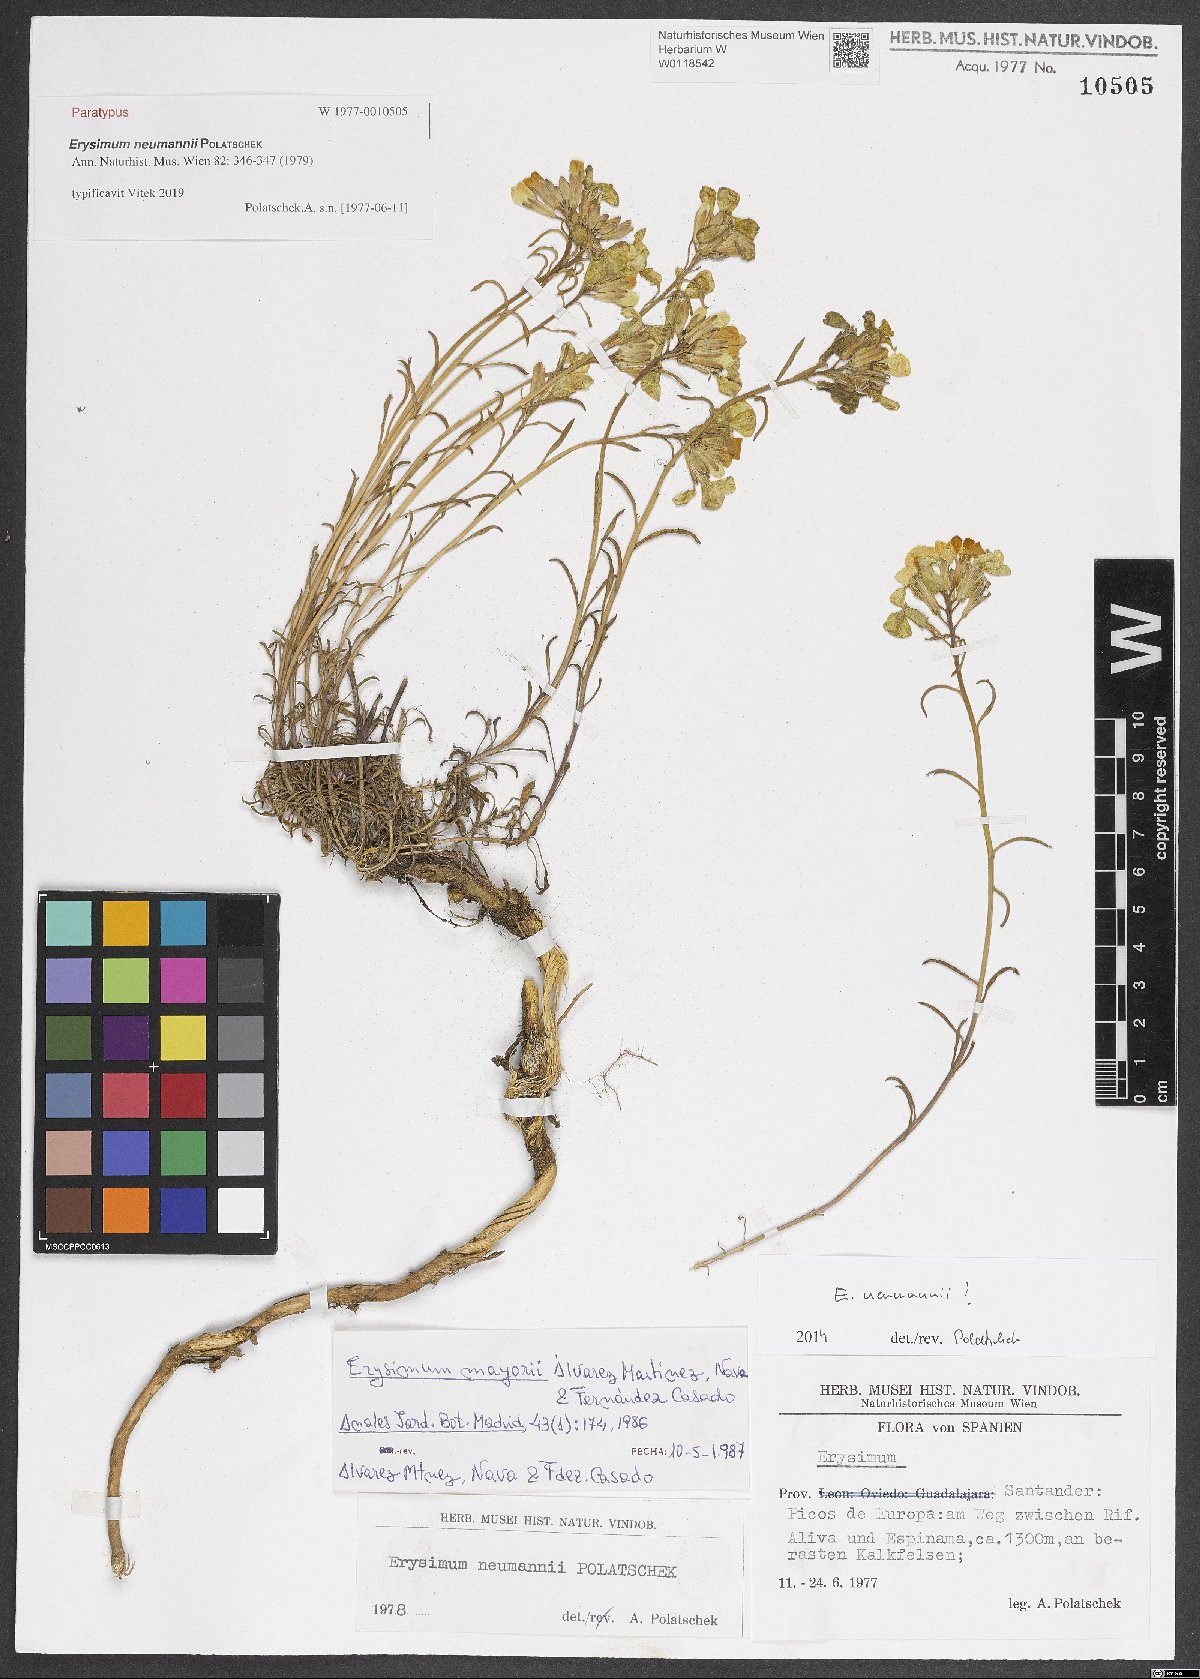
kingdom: Plantae
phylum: Tracheophyta
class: Magnoliopsida
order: Brassicales
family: Brassicaceae
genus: Erysimum
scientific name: Erysimum duriaei
